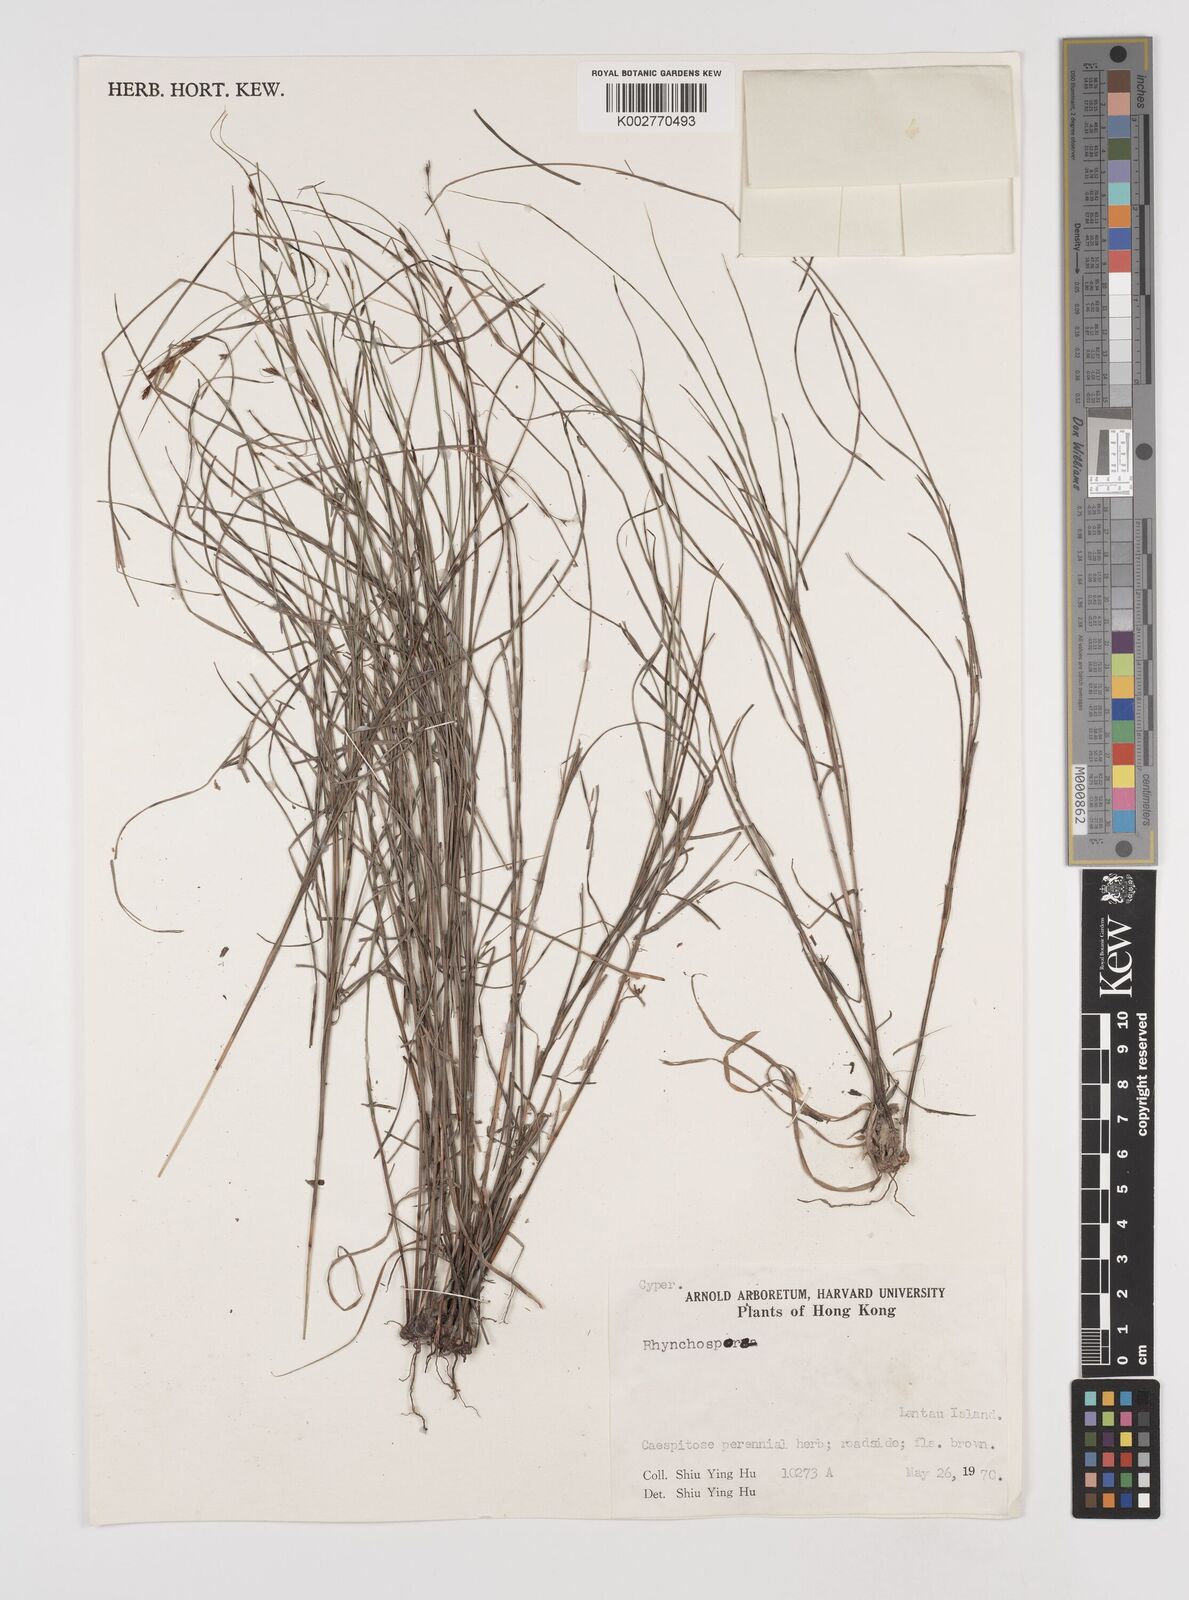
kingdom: Plantae
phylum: Tracheophyta
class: Liliopsida
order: Poales
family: Cyperaceae
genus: Rhynchospora
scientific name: Rhynchospora
